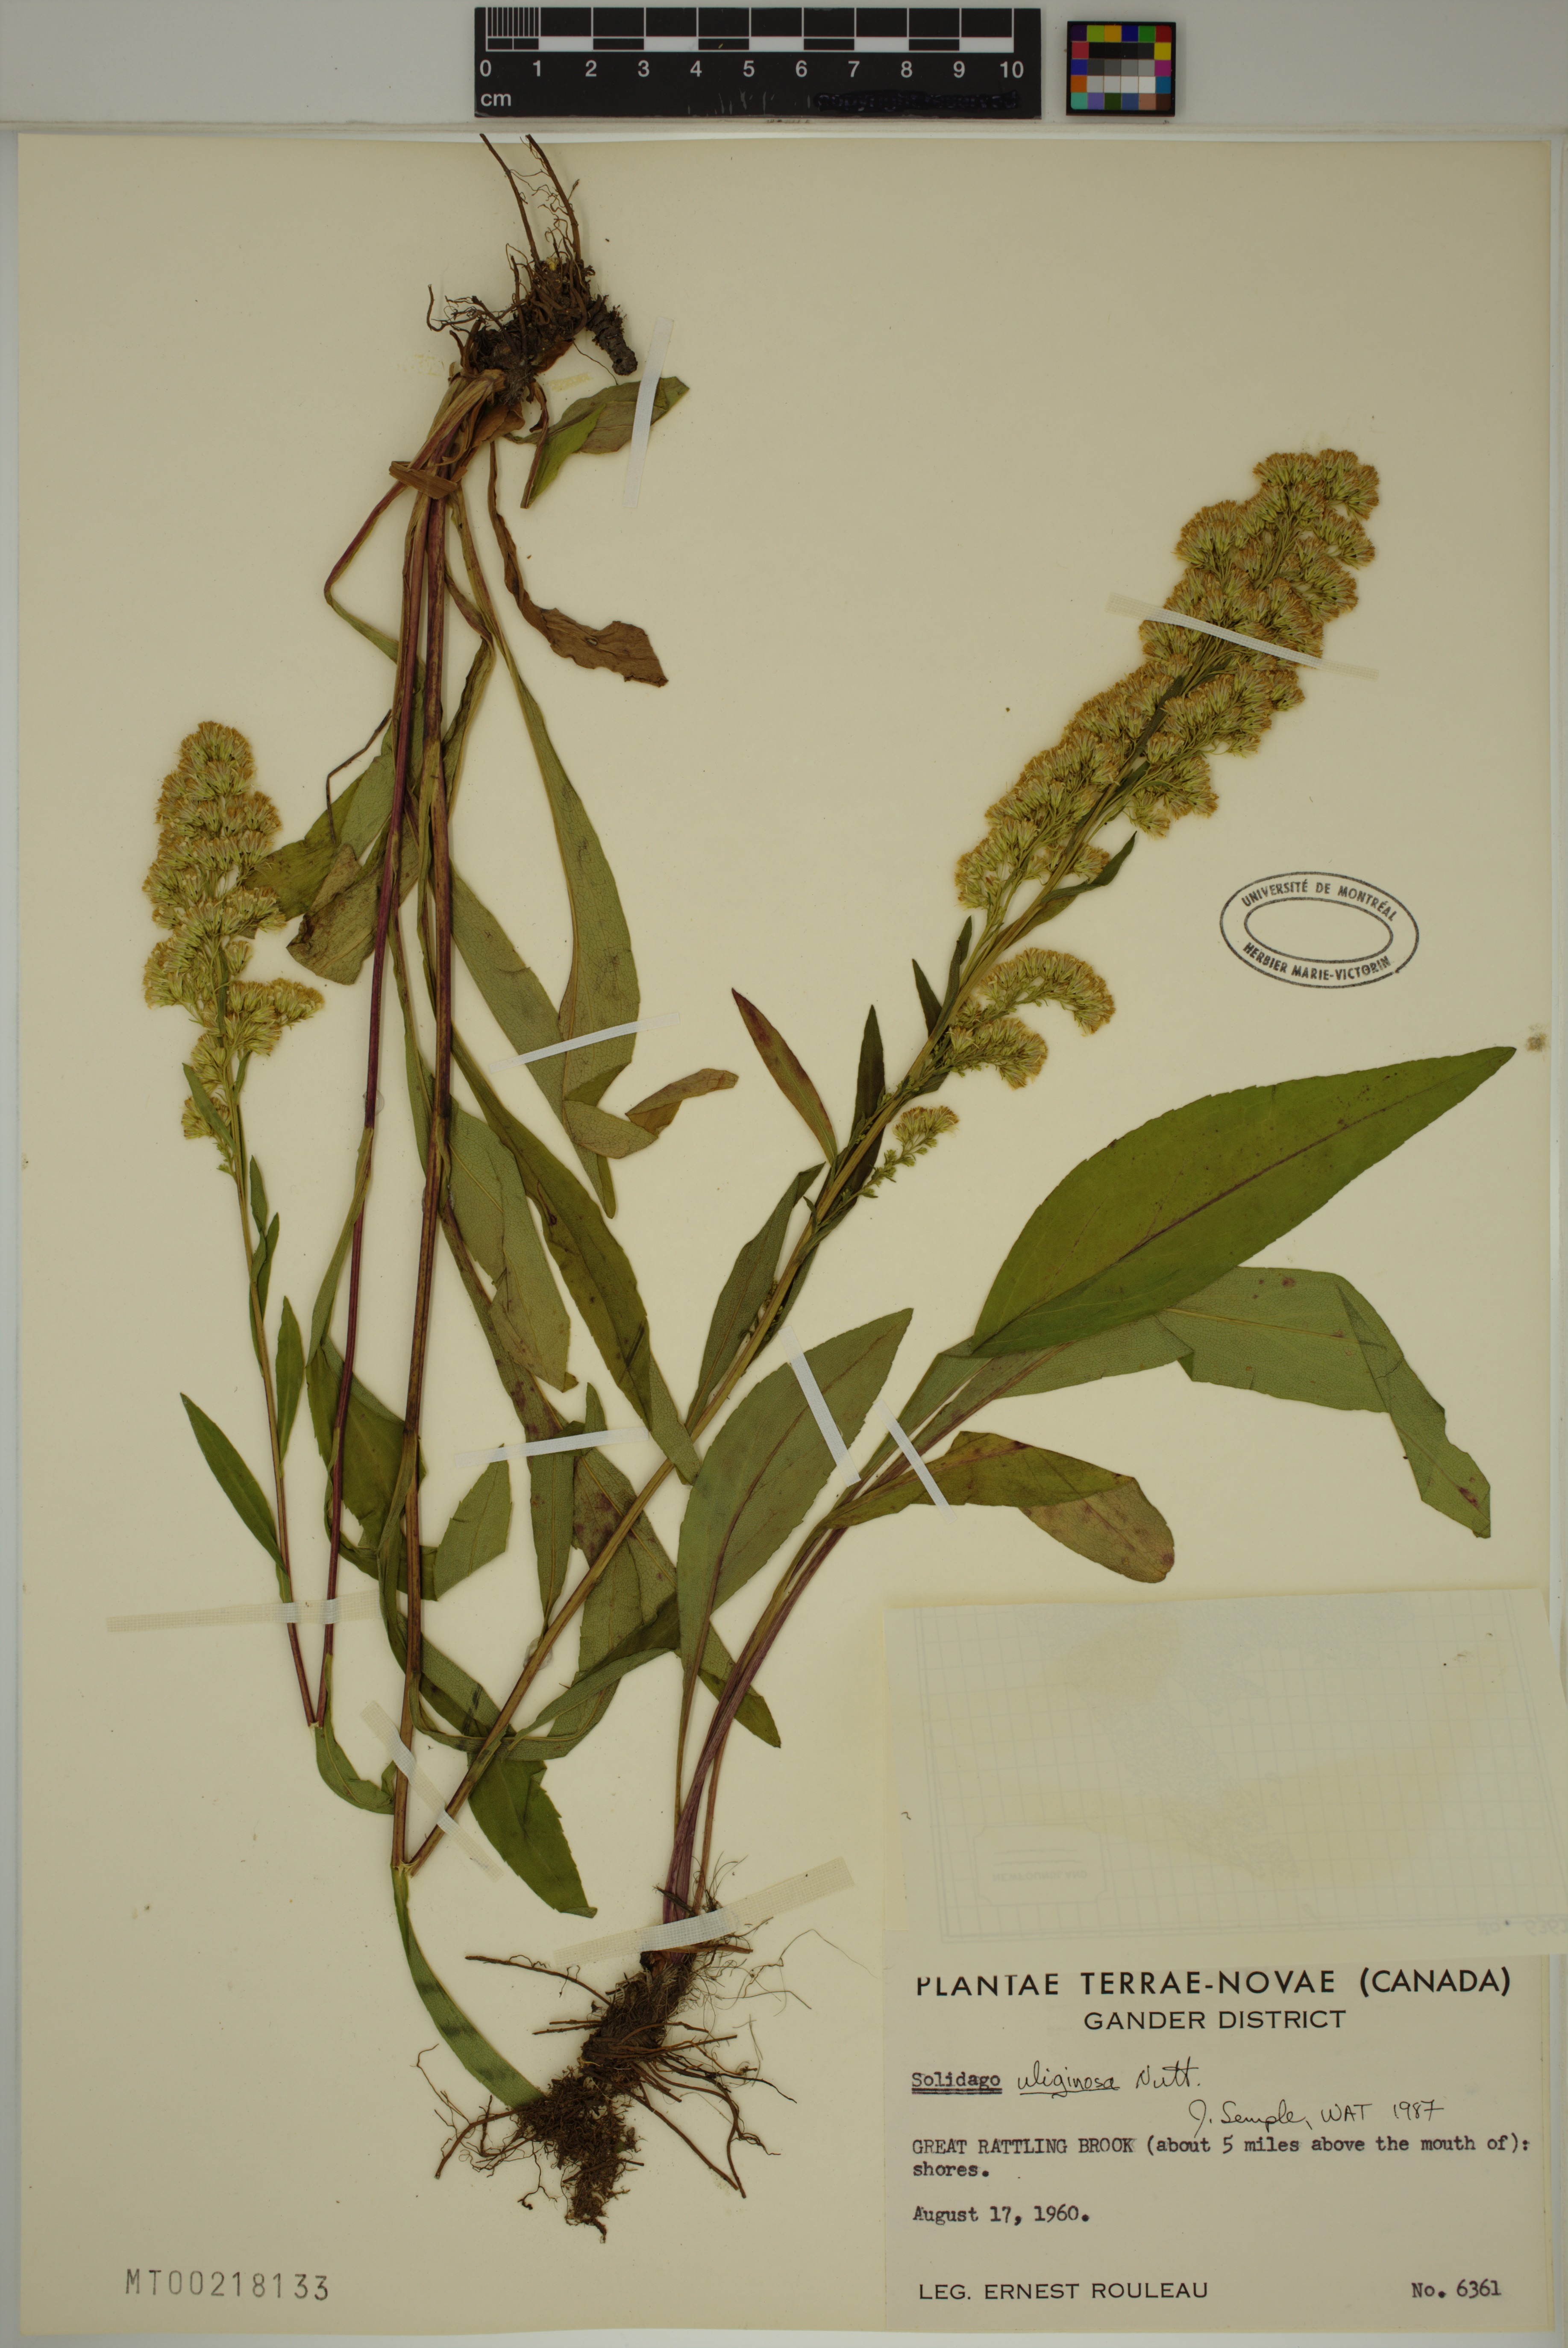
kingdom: Plantae
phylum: Tracheophyta
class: Magnoliopsida
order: Asterales
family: Asteraceae
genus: Solidago
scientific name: Solidago uliginosa
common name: Bog goldenrod
